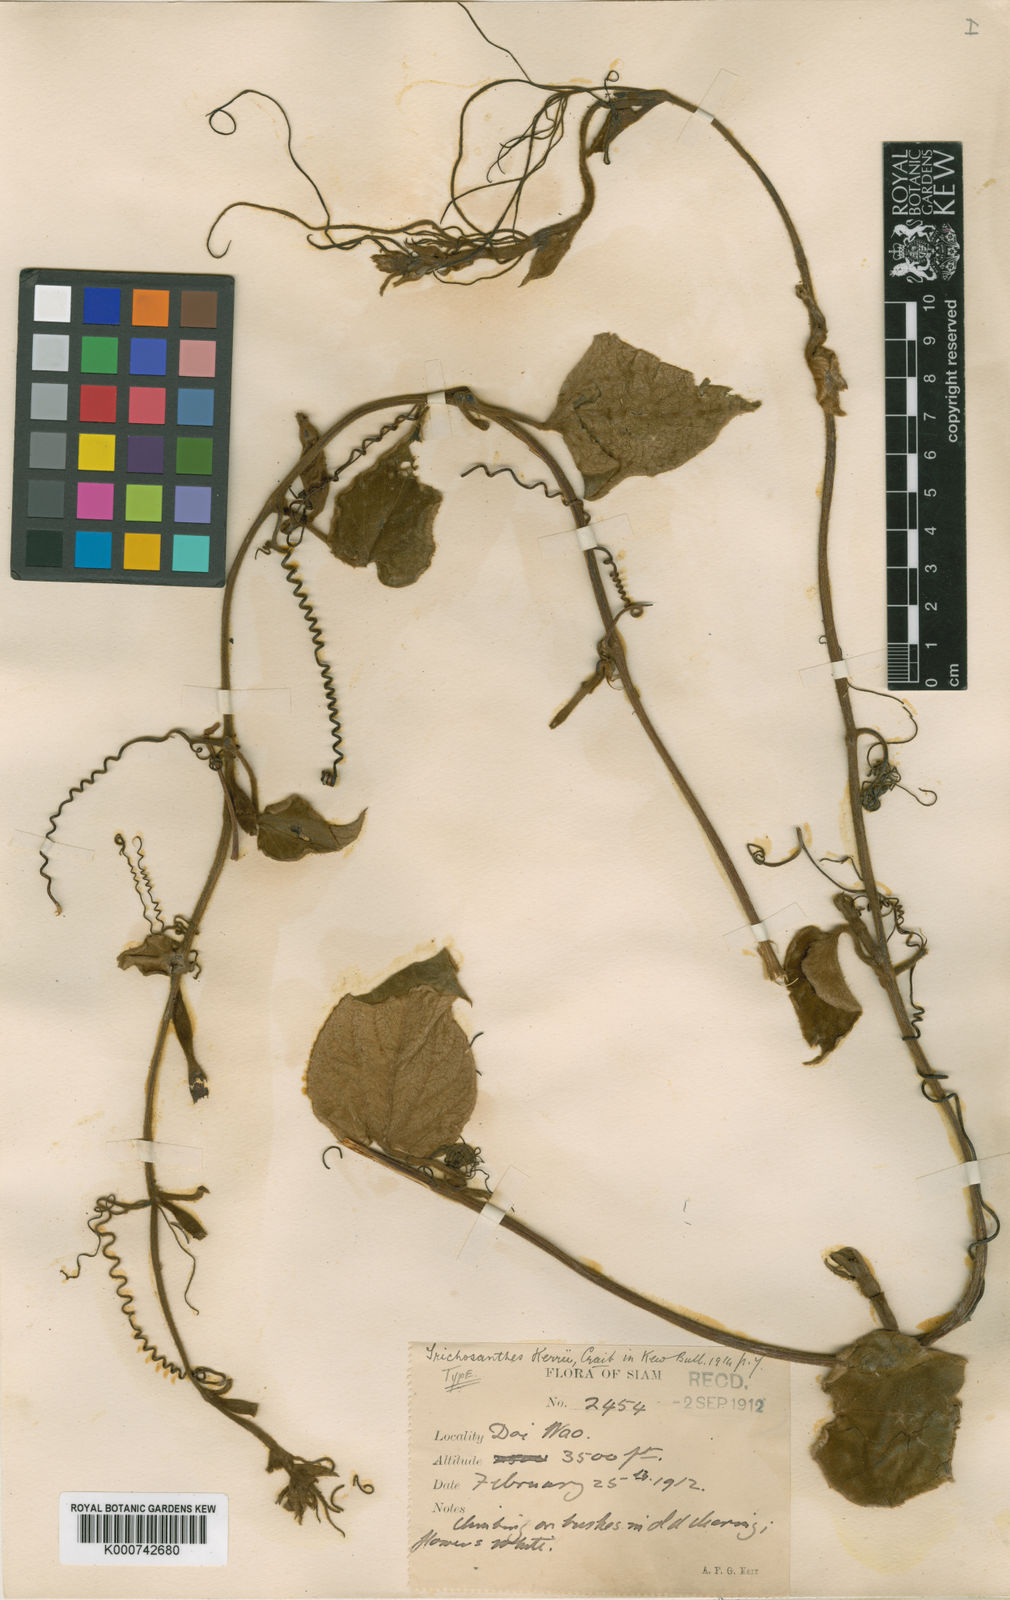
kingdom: Plantae
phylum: Tracheophyta
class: Magnoliopsida
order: Cucurbitales
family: Cucurbitaceae
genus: Trichosanthes
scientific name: Trichosanthes kerrii
